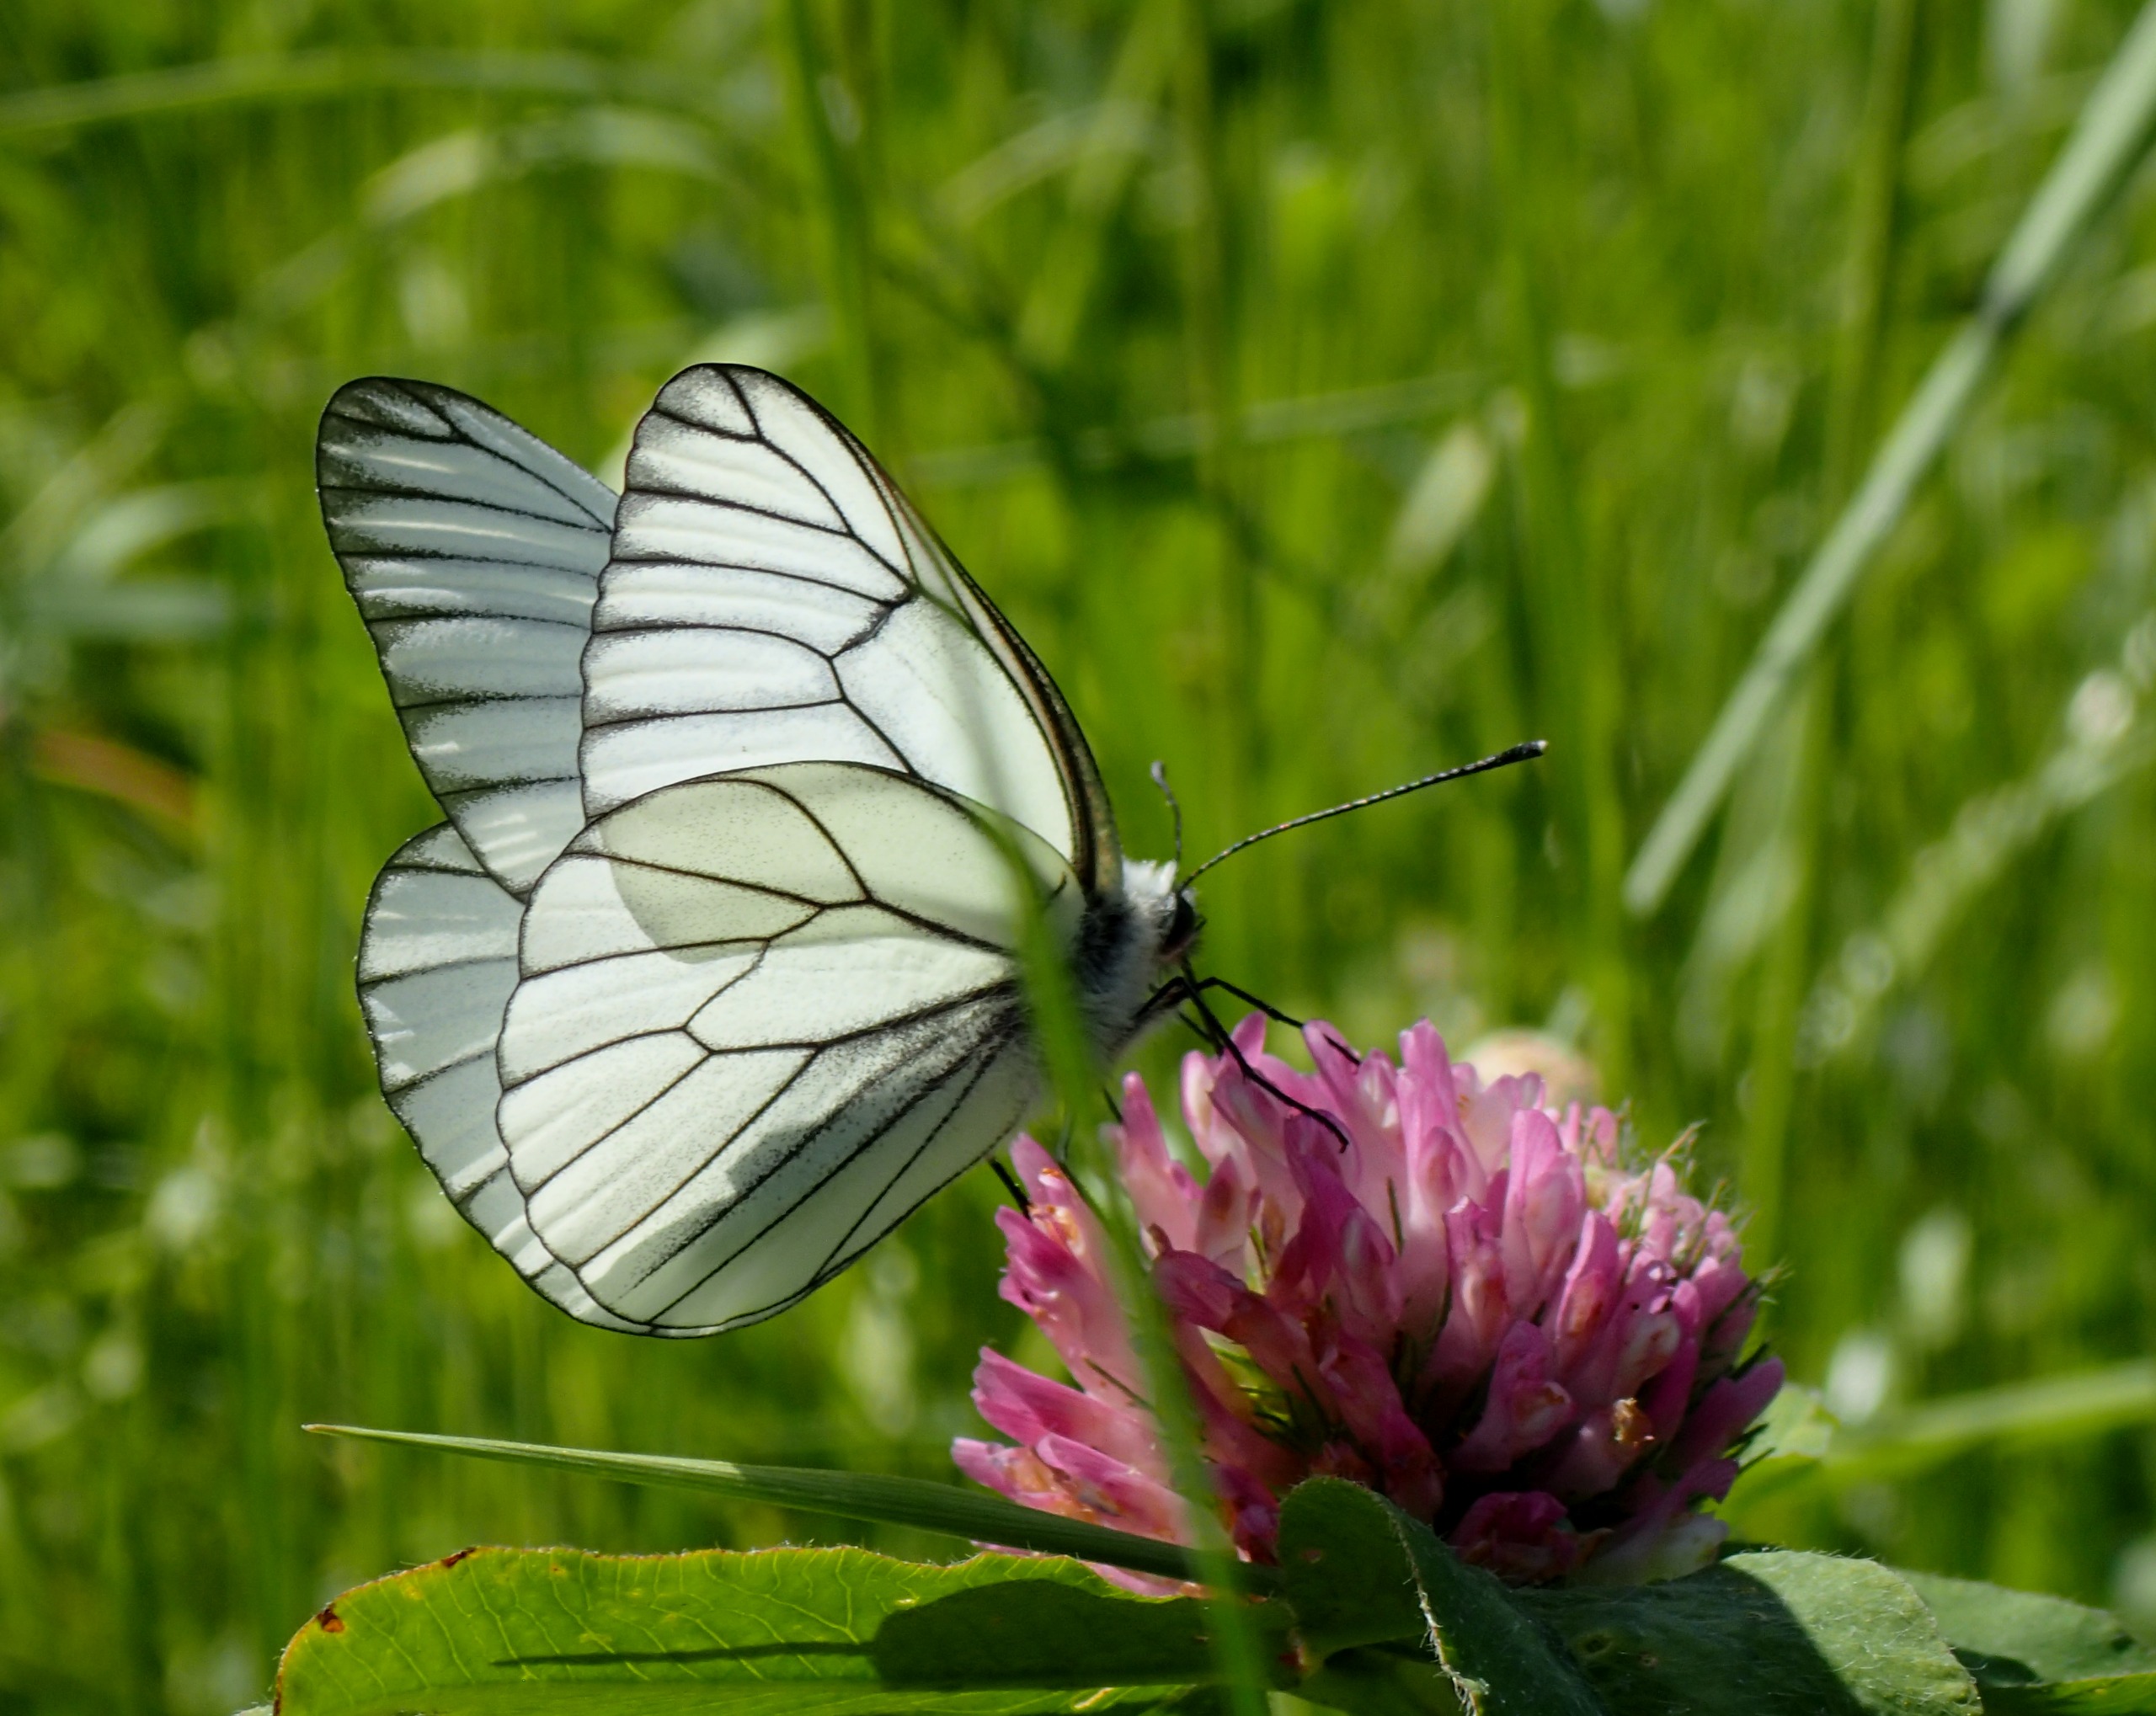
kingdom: Animalia
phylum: Arthropoda
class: Insecta
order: Lepidoptera
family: Pieridae
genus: Aporia
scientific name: Aporia crataegi
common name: Sortåret hvidvinge
